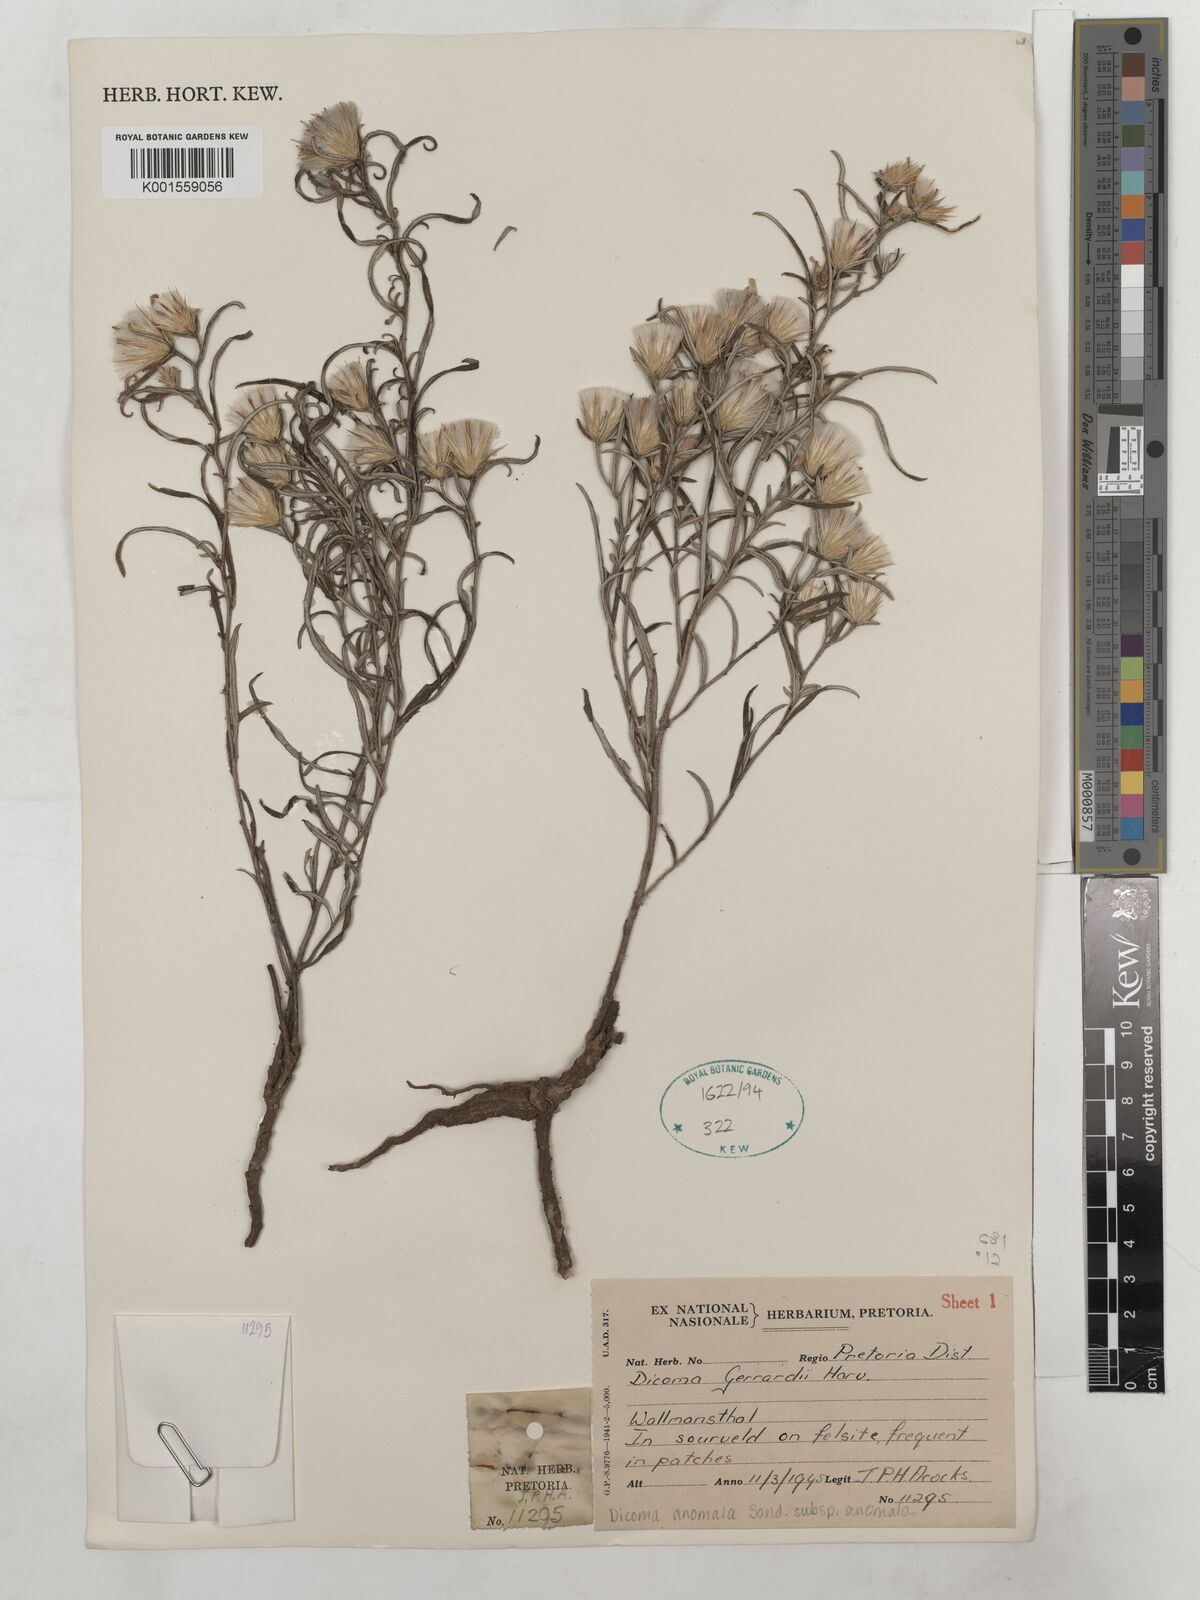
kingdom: Plantae
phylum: Tracheophyta
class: Magnoliopsida
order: Asterales
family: Asteraceae
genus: Dicoma
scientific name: Dicoma anomala
